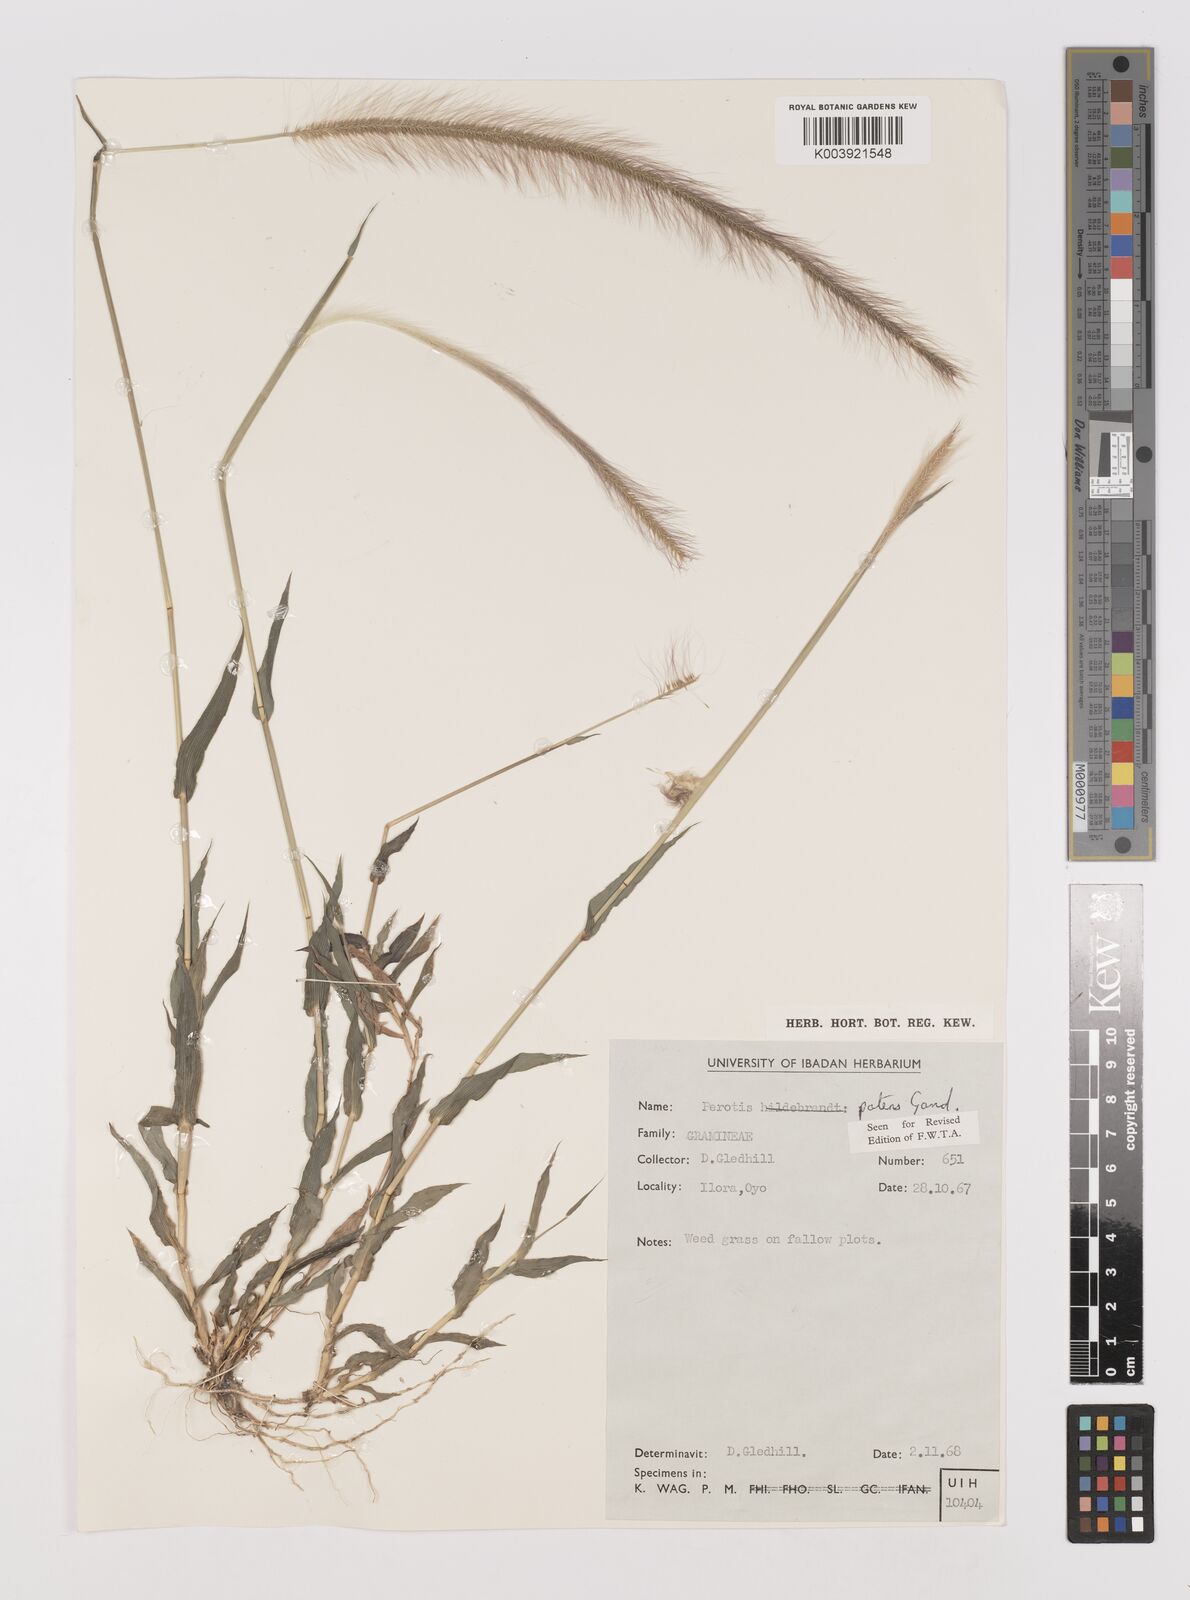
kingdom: Plantae
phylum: Tracheophyta
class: Liliopsida
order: Poales
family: Poaceae
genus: Perotis
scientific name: Perotis patens
